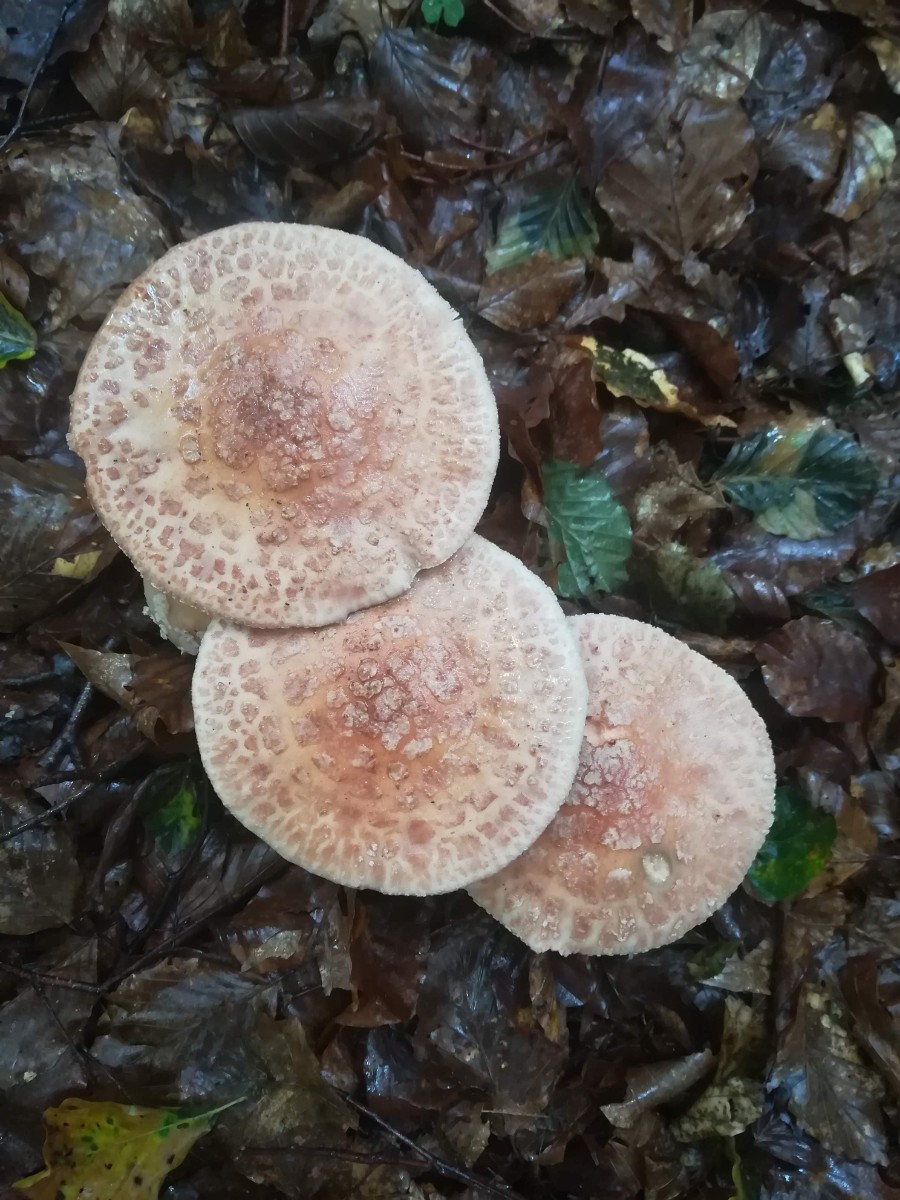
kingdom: Fungi
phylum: Basidiomycota
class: Agaricomycetes
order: Agaricales
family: Amanitaceae
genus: Amanita
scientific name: Amanita rubescens
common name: rødmende fluesvamp
